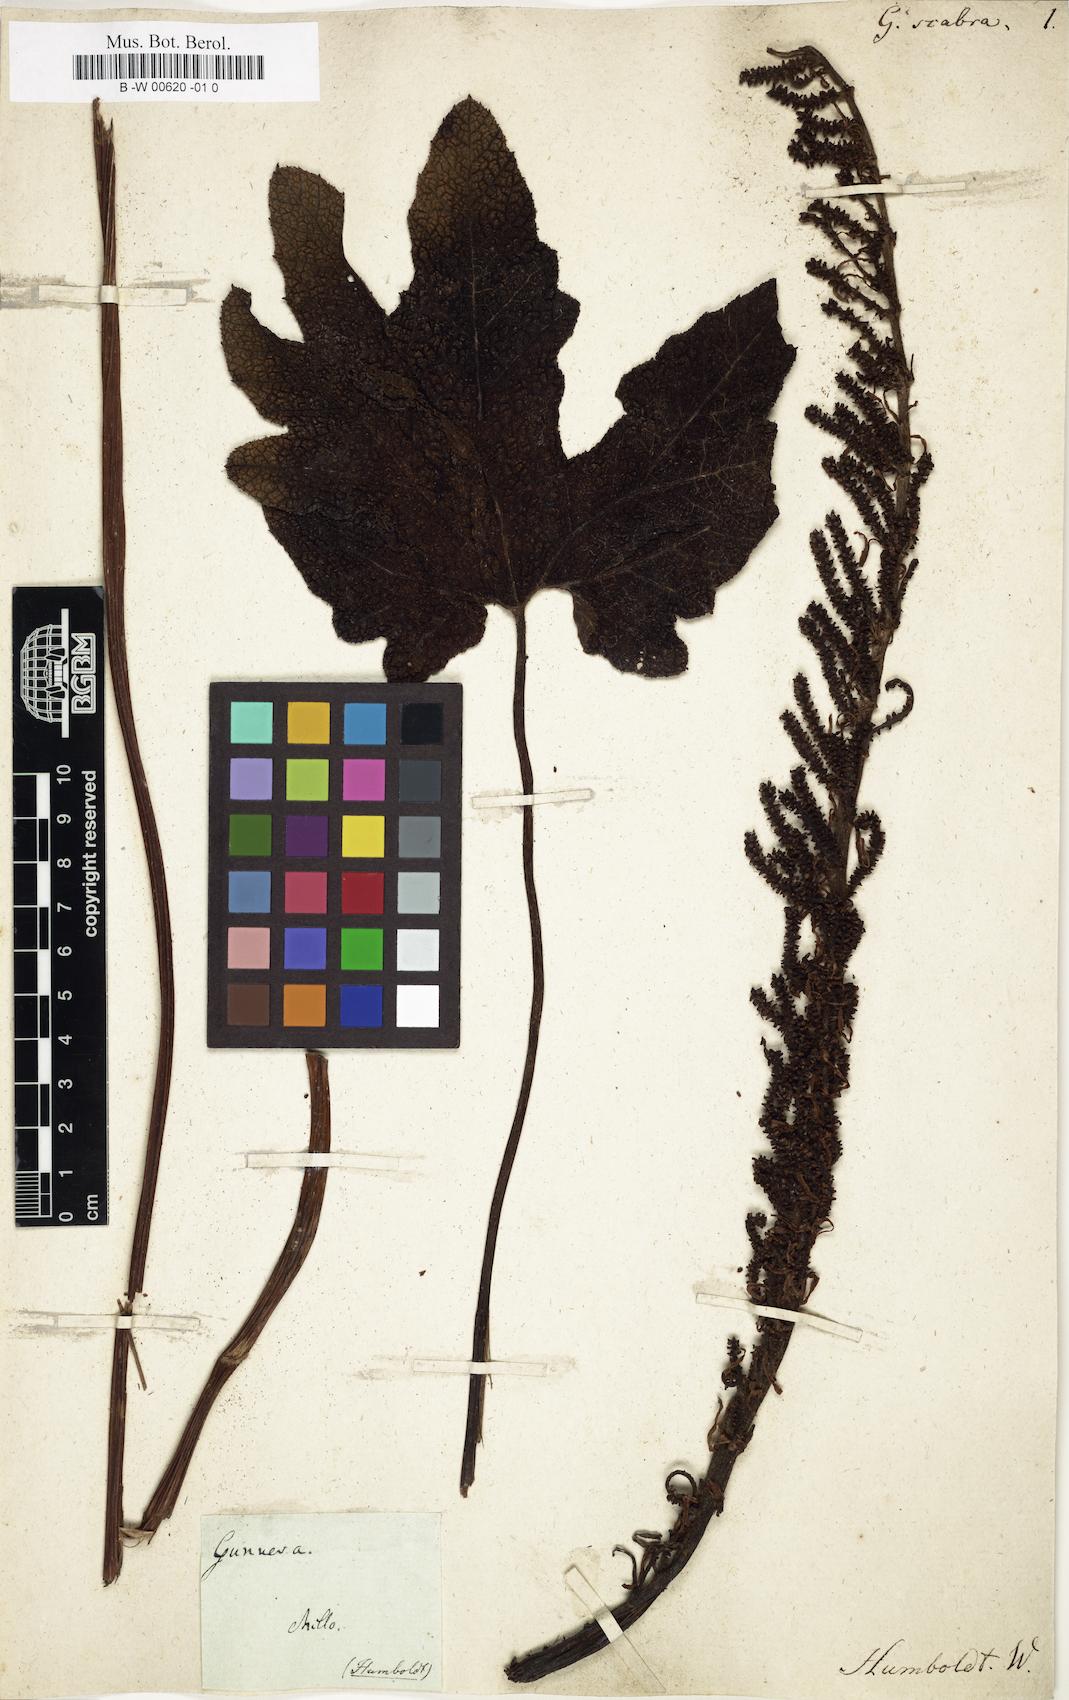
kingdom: Plantae
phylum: Tracheophyta
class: Magnoliopsida
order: Gunnerales
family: Gunneraceae
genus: Gunnera
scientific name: Gunnera tinctoria
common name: Giant-rhubarb
